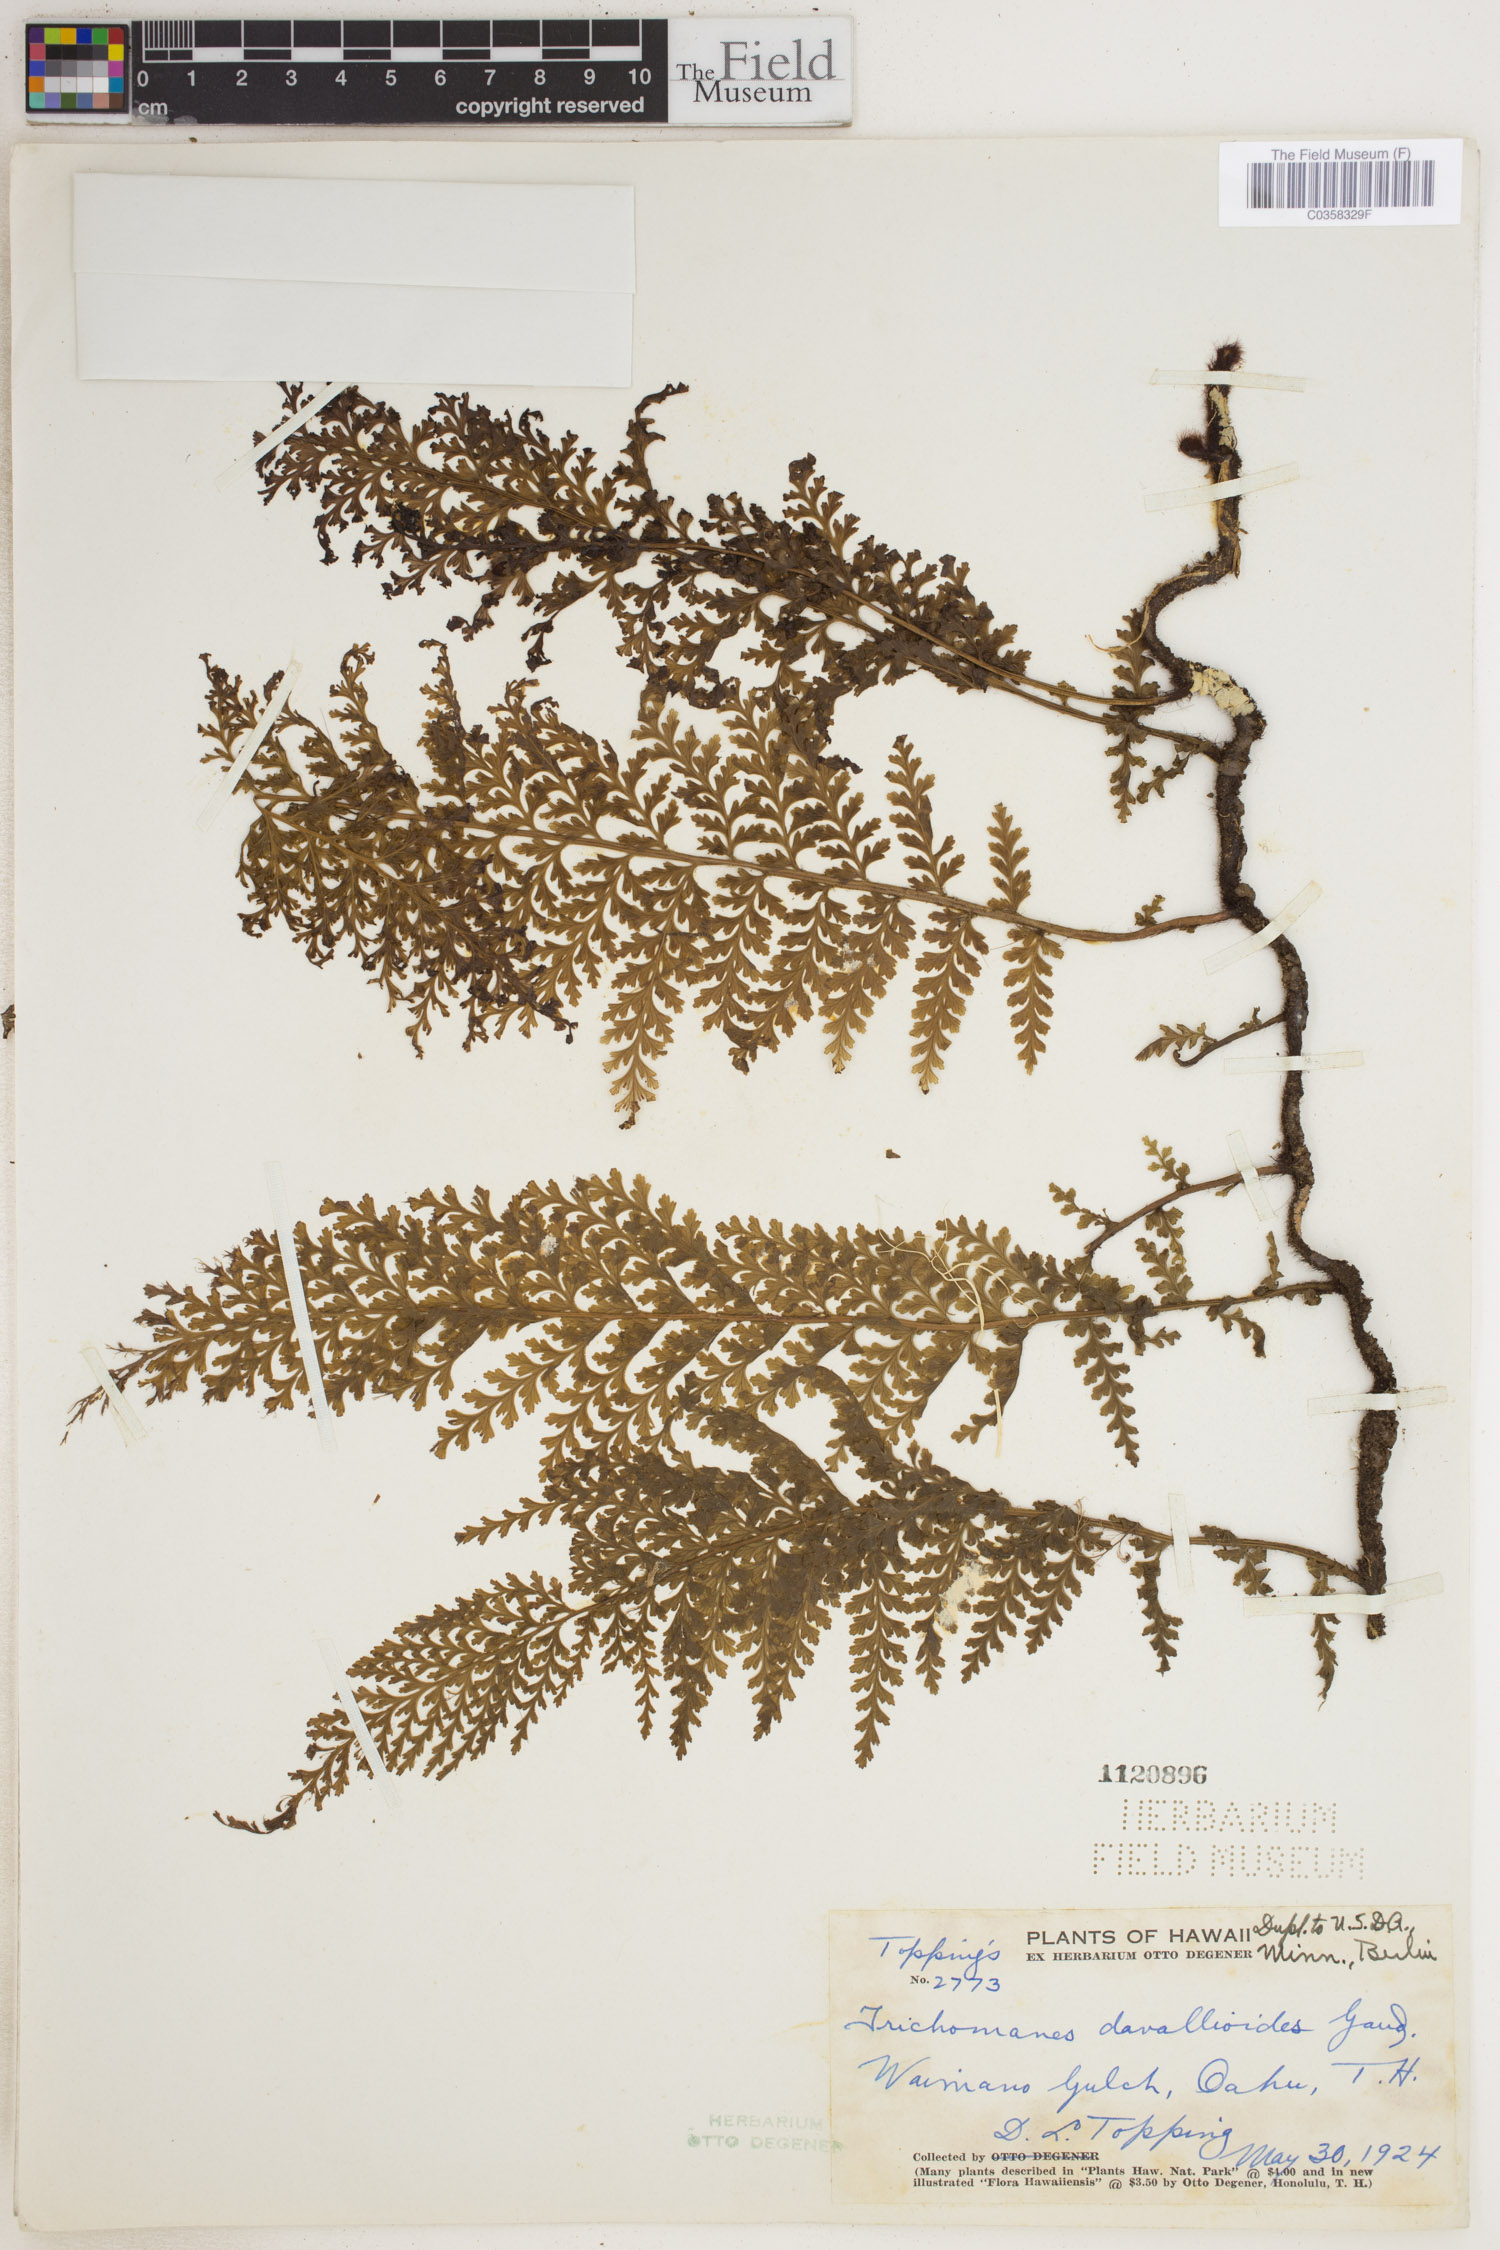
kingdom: Plantae
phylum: Tracheophyta
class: Polypodiopsida
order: Hymenophyllales
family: Hymenophyllaceae
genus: Vandenboschia
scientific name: Vandenboschia davallioides
